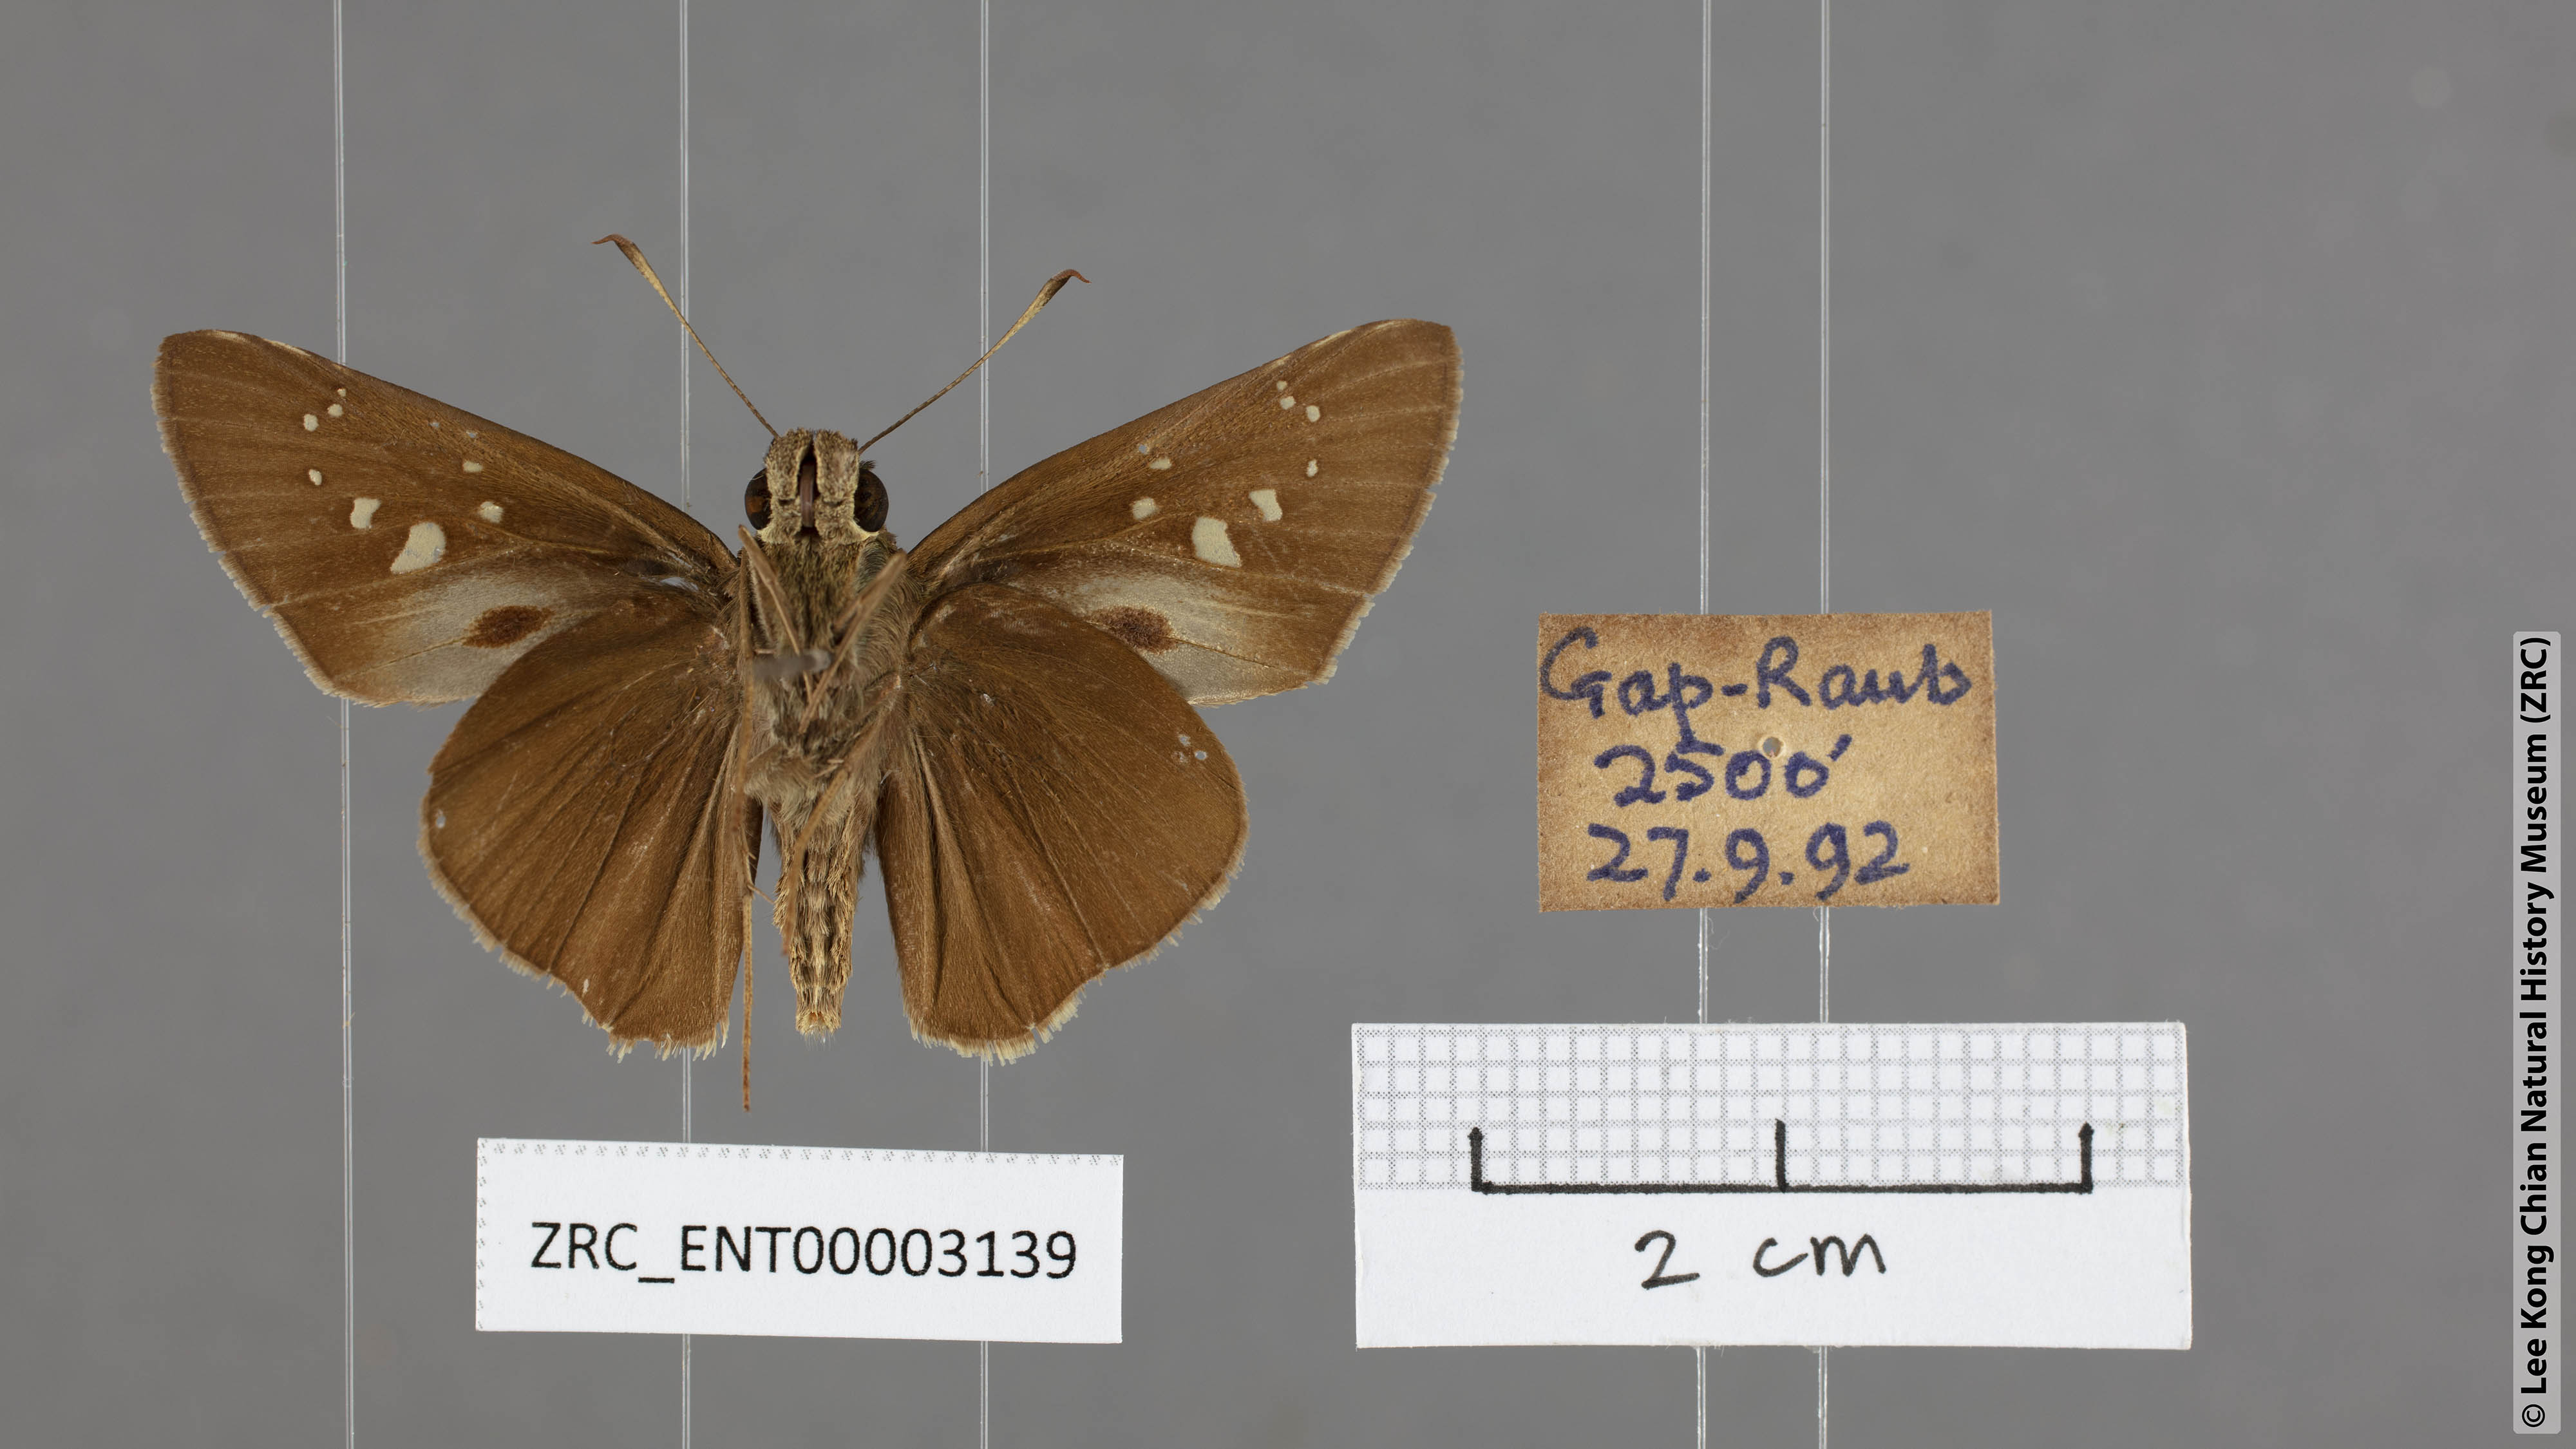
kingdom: Animalia
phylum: Arthropoda
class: Insecta
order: Lepidoptera
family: Hesperiidae
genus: Baoris
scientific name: Baoris oceia
